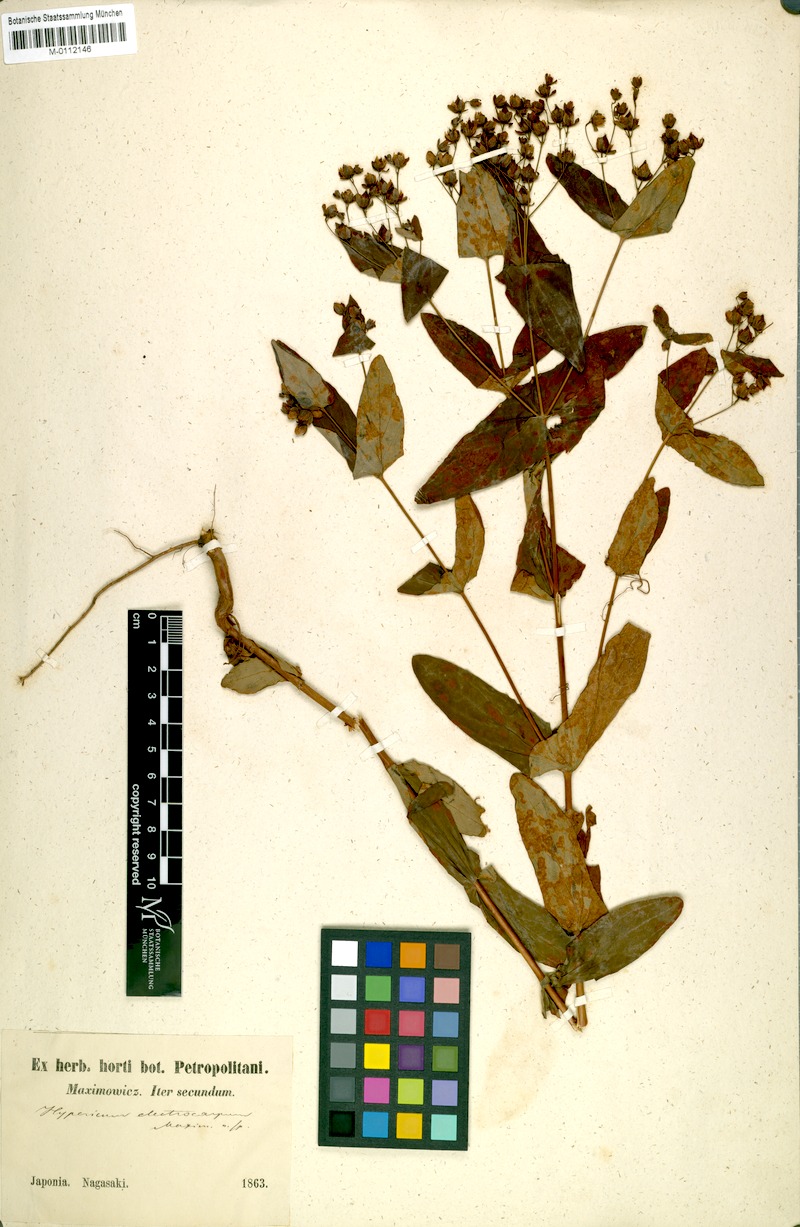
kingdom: Plantae
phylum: Tracheophyta
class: Magnoliopsida
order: Malpighiales
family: Hypericaceae
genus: Hypericum
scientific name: Hypericum sampsonii
